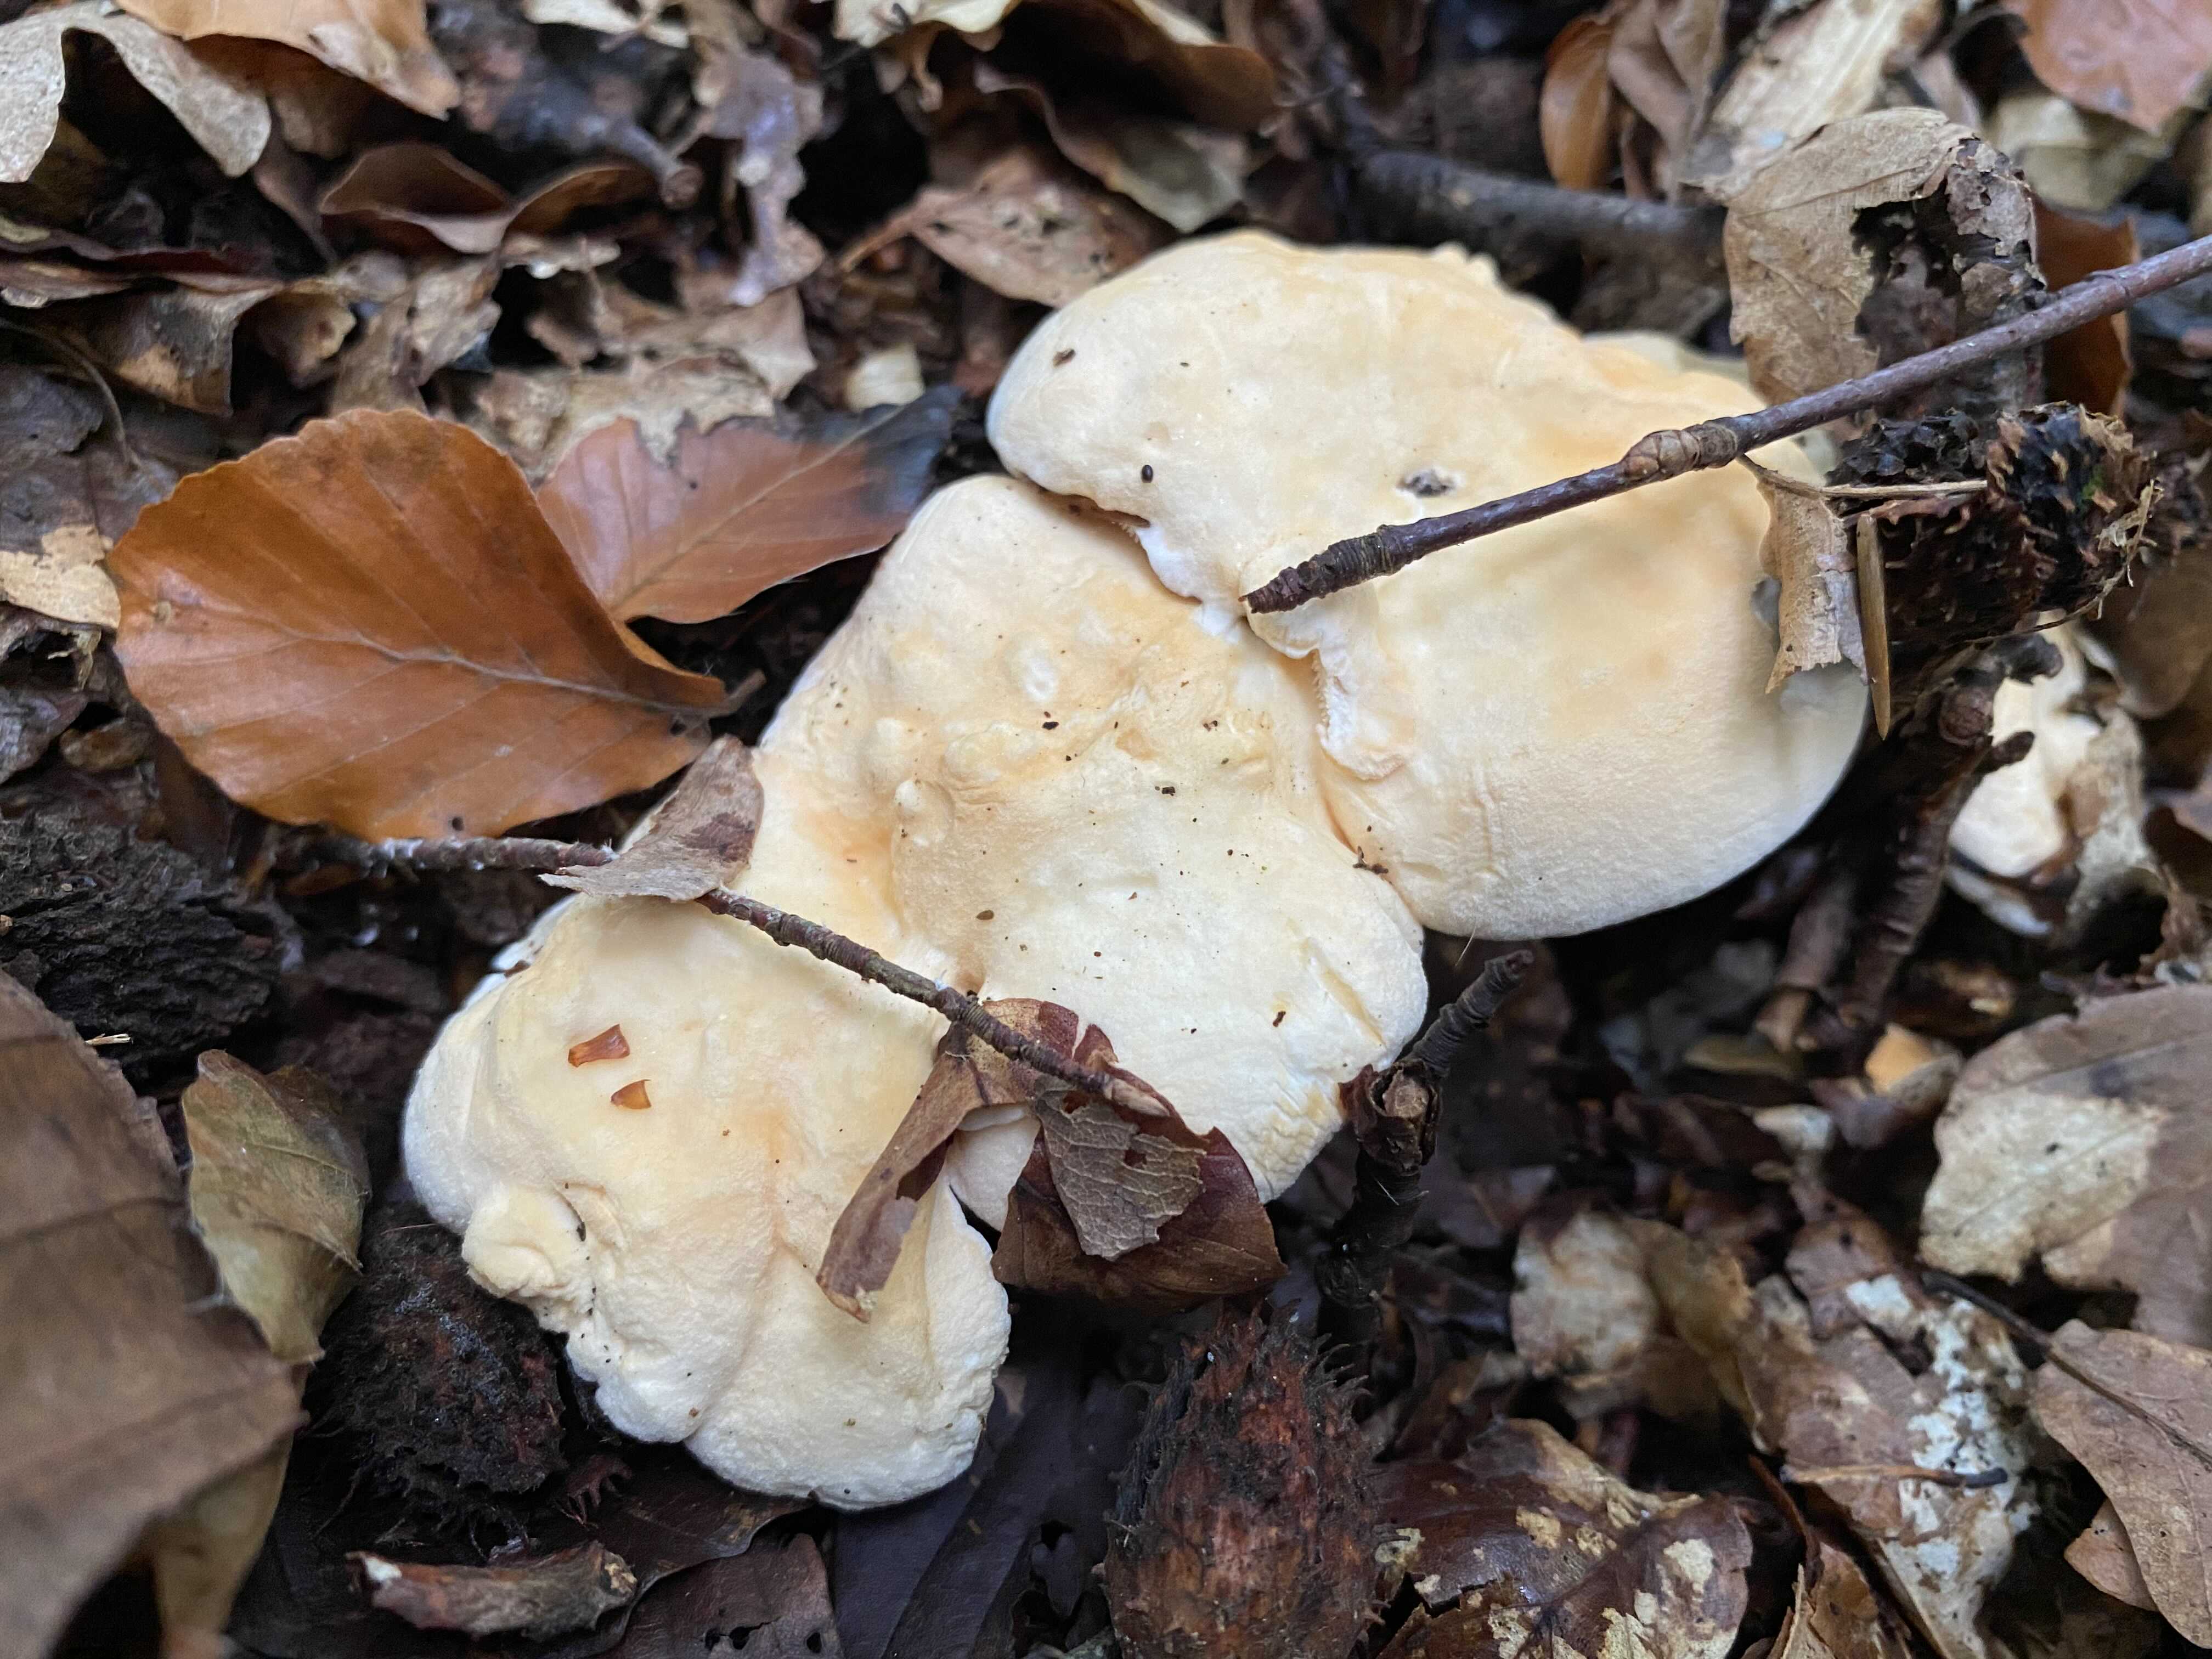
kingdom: Fungi
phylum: Basidiomycota
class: Agaricomycetes
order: Cantharellales
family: Hydnaceae
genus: Hydnum
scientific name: Hydnum
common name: pigsvamp
